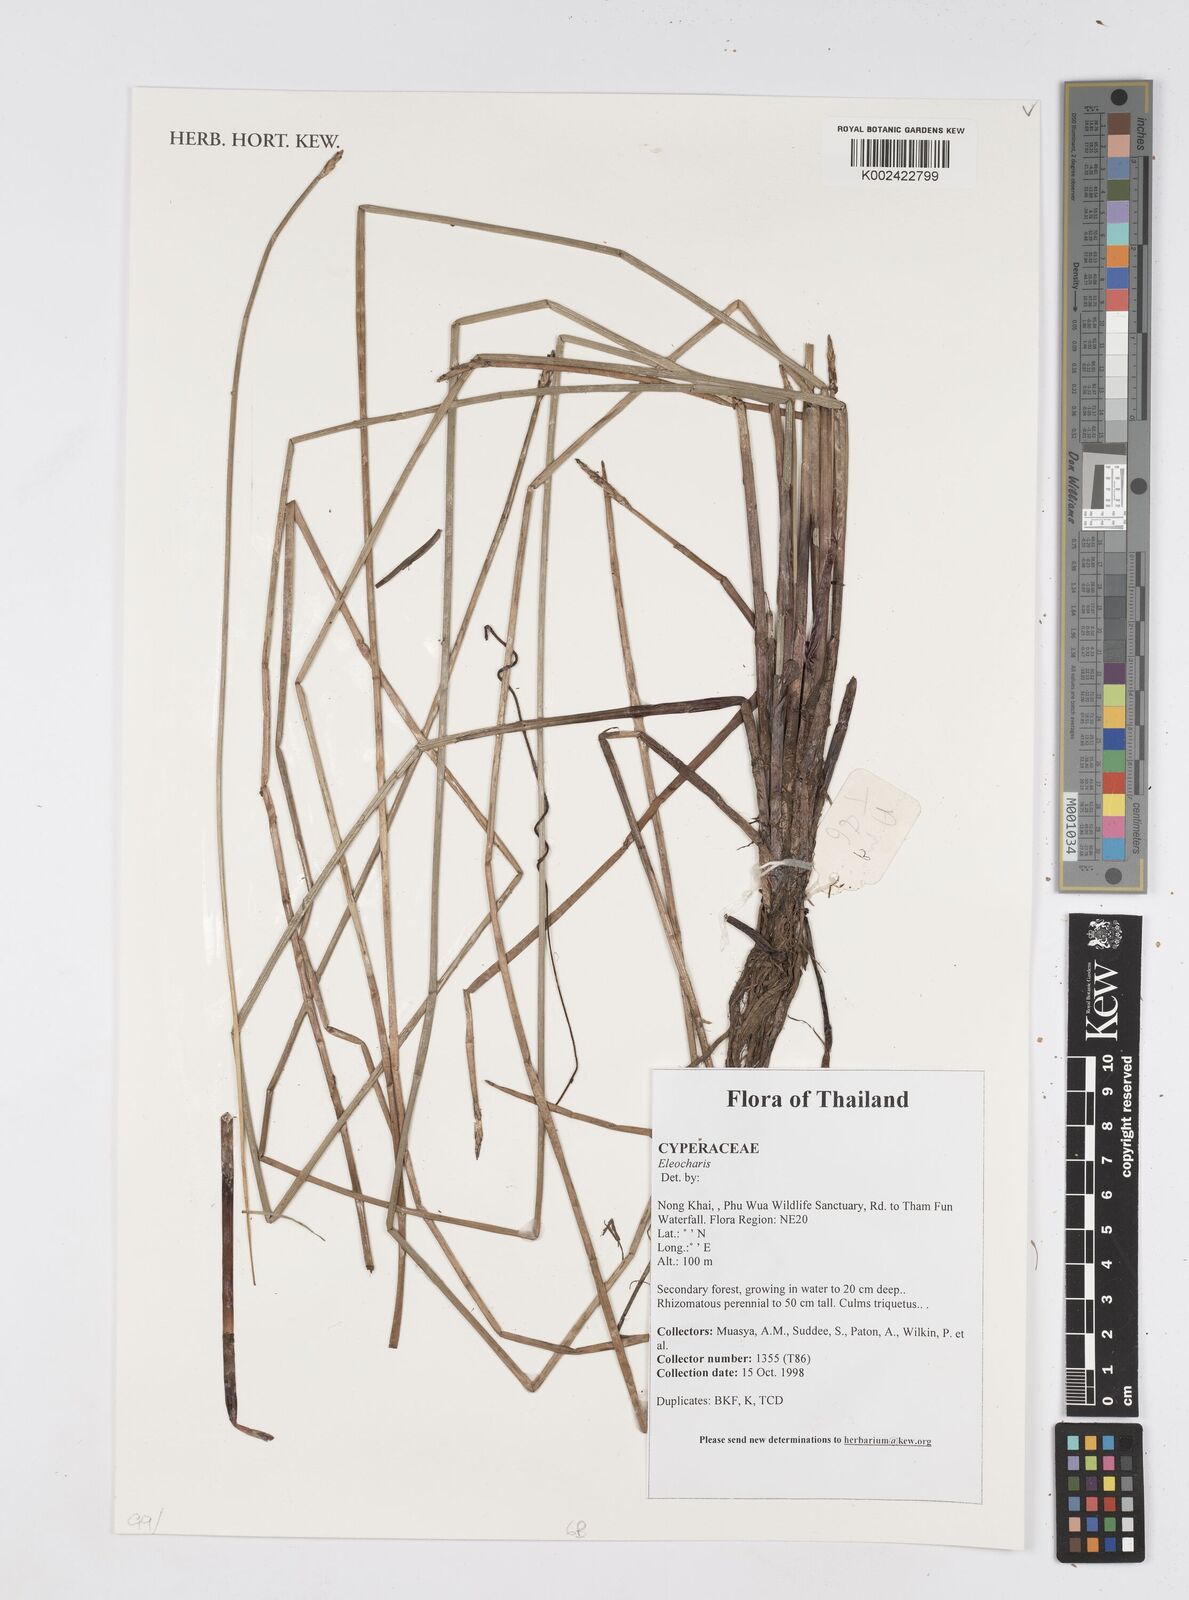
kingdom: Plantae
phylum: Tracheophyta
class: Liliopsida
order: Poales
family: Cyperaceae
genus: Eleocharis
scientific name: Eleocharis
